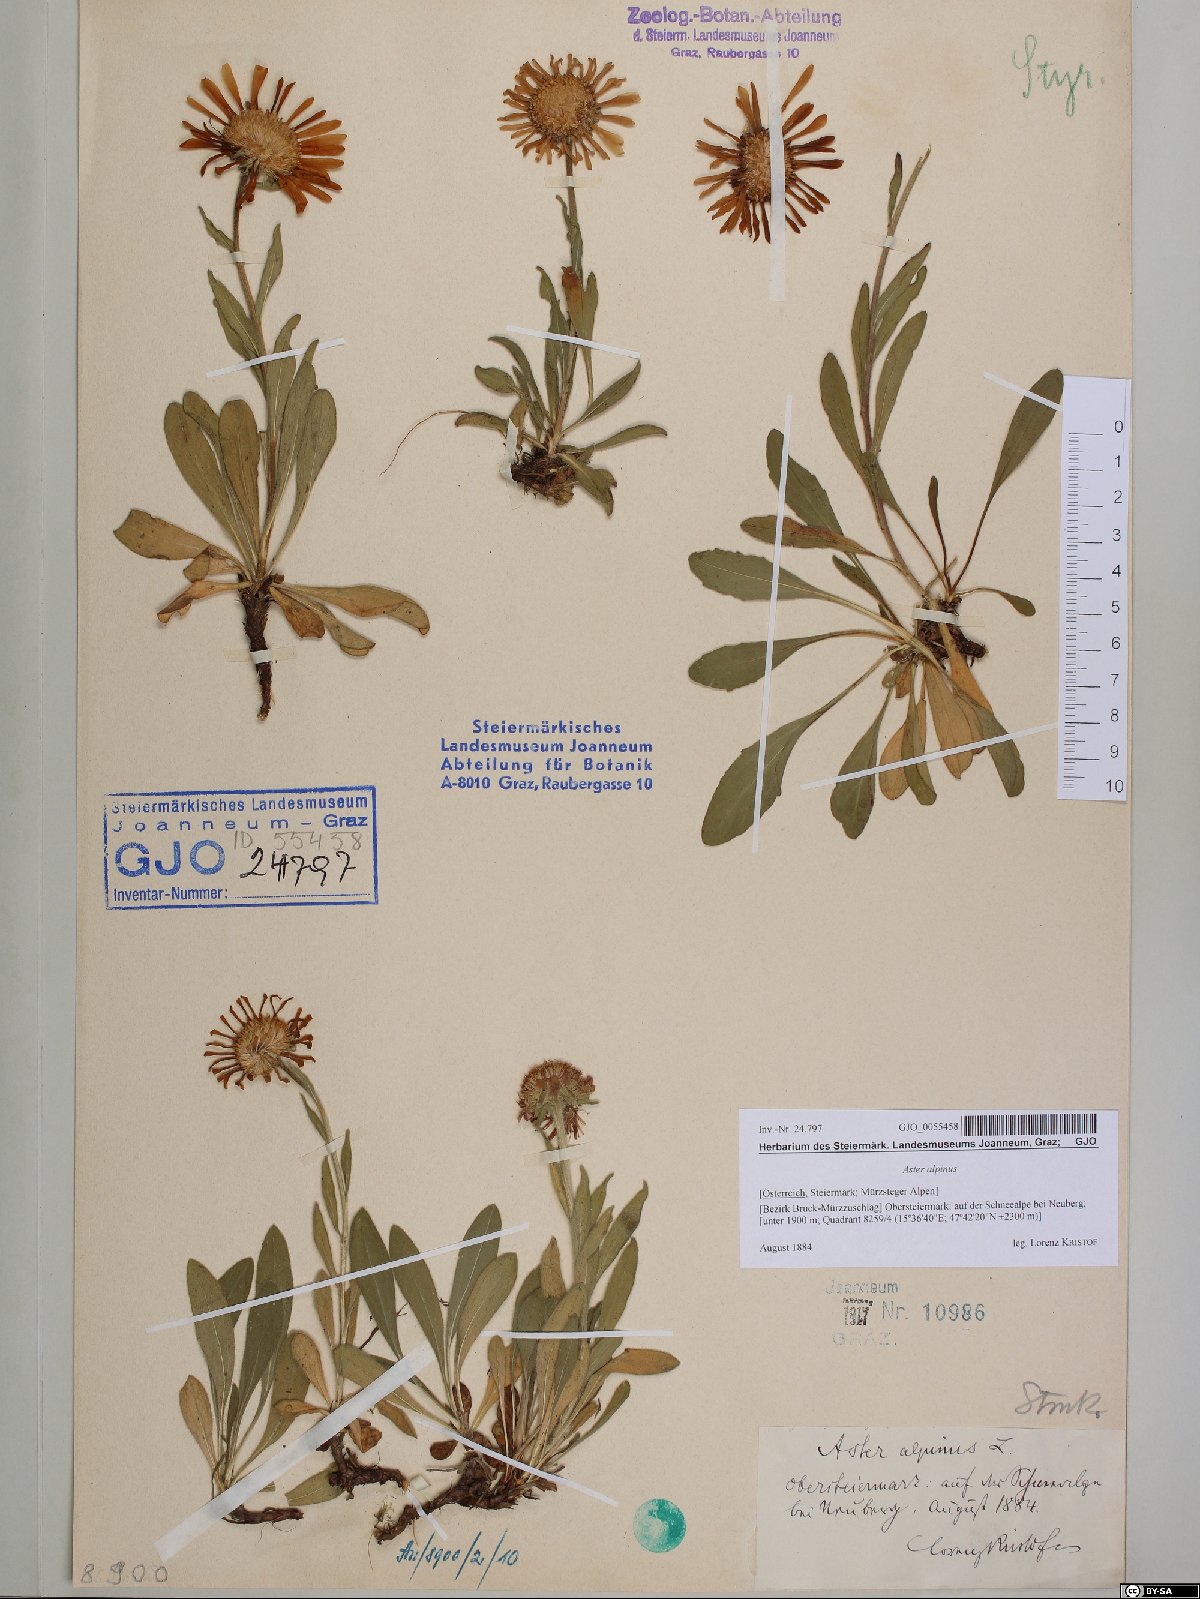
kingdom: Plantae
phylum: Tracheophyta
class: Magnoliopsida
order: Asterales
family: Asteraceae
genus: Aster
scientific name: Aster alpinus
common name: Alpine aster
